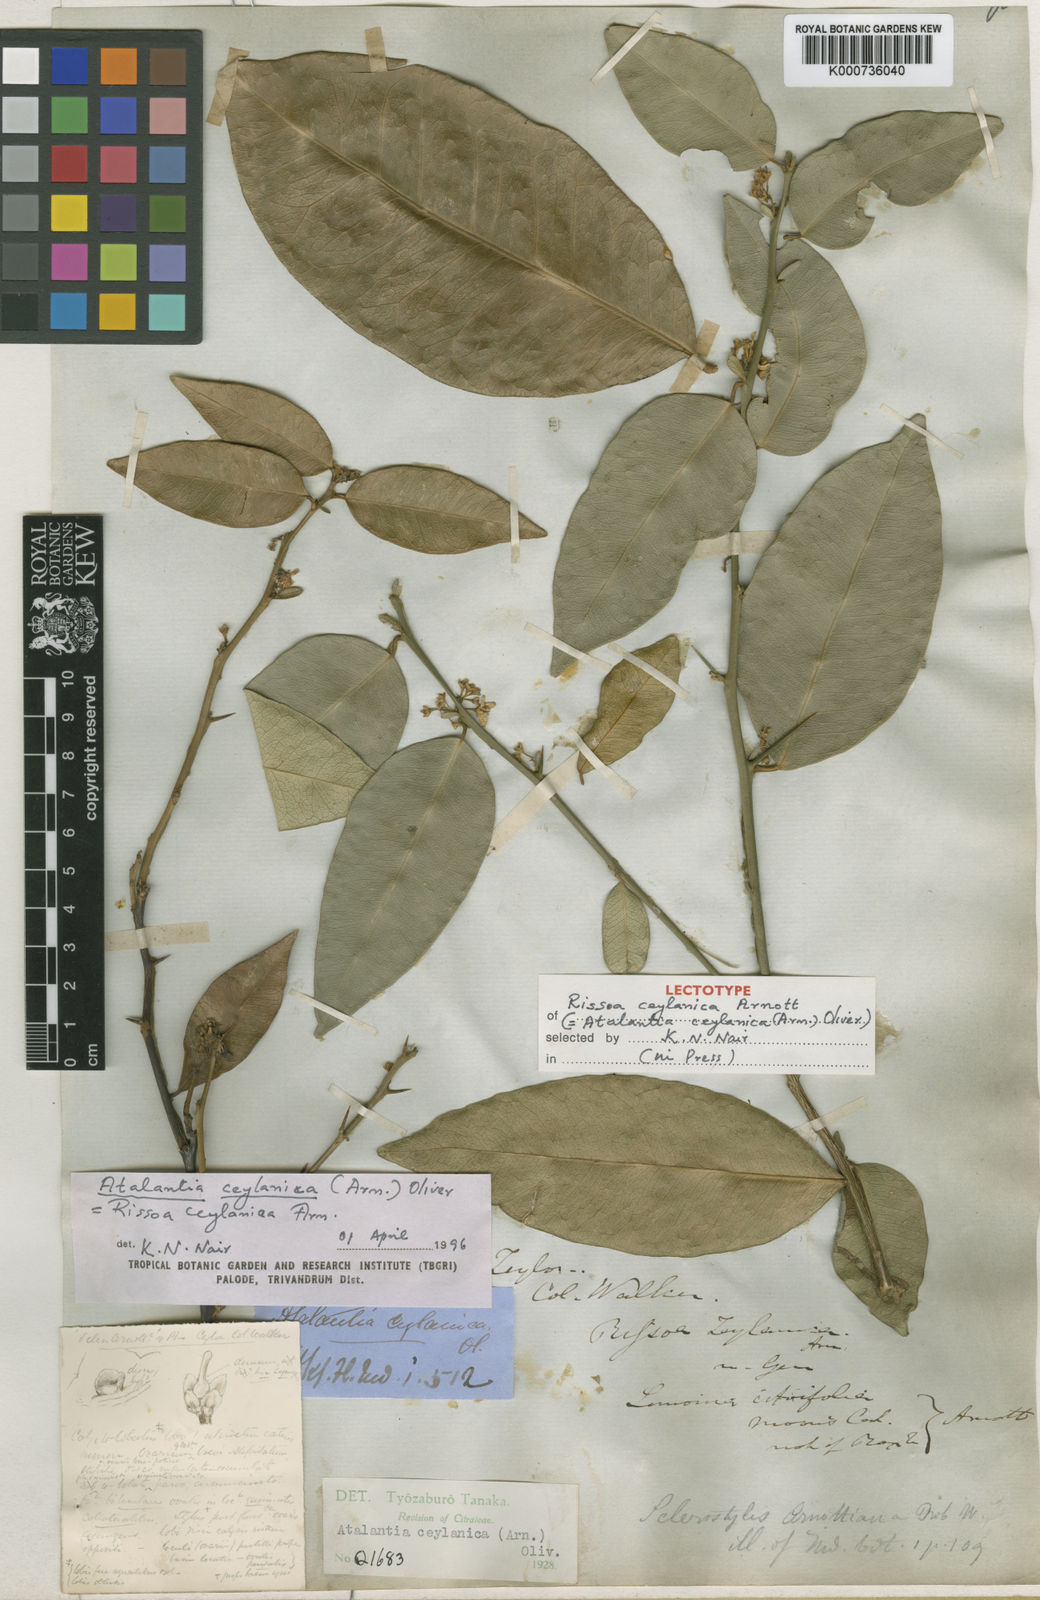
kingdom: Plantae
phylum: Tracheophyta
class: Magnoliopsida
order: Sapindales
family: Rutaceae
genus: Atalantia
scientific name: Atalantia ceylanica
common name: Ceylon-atalantia
